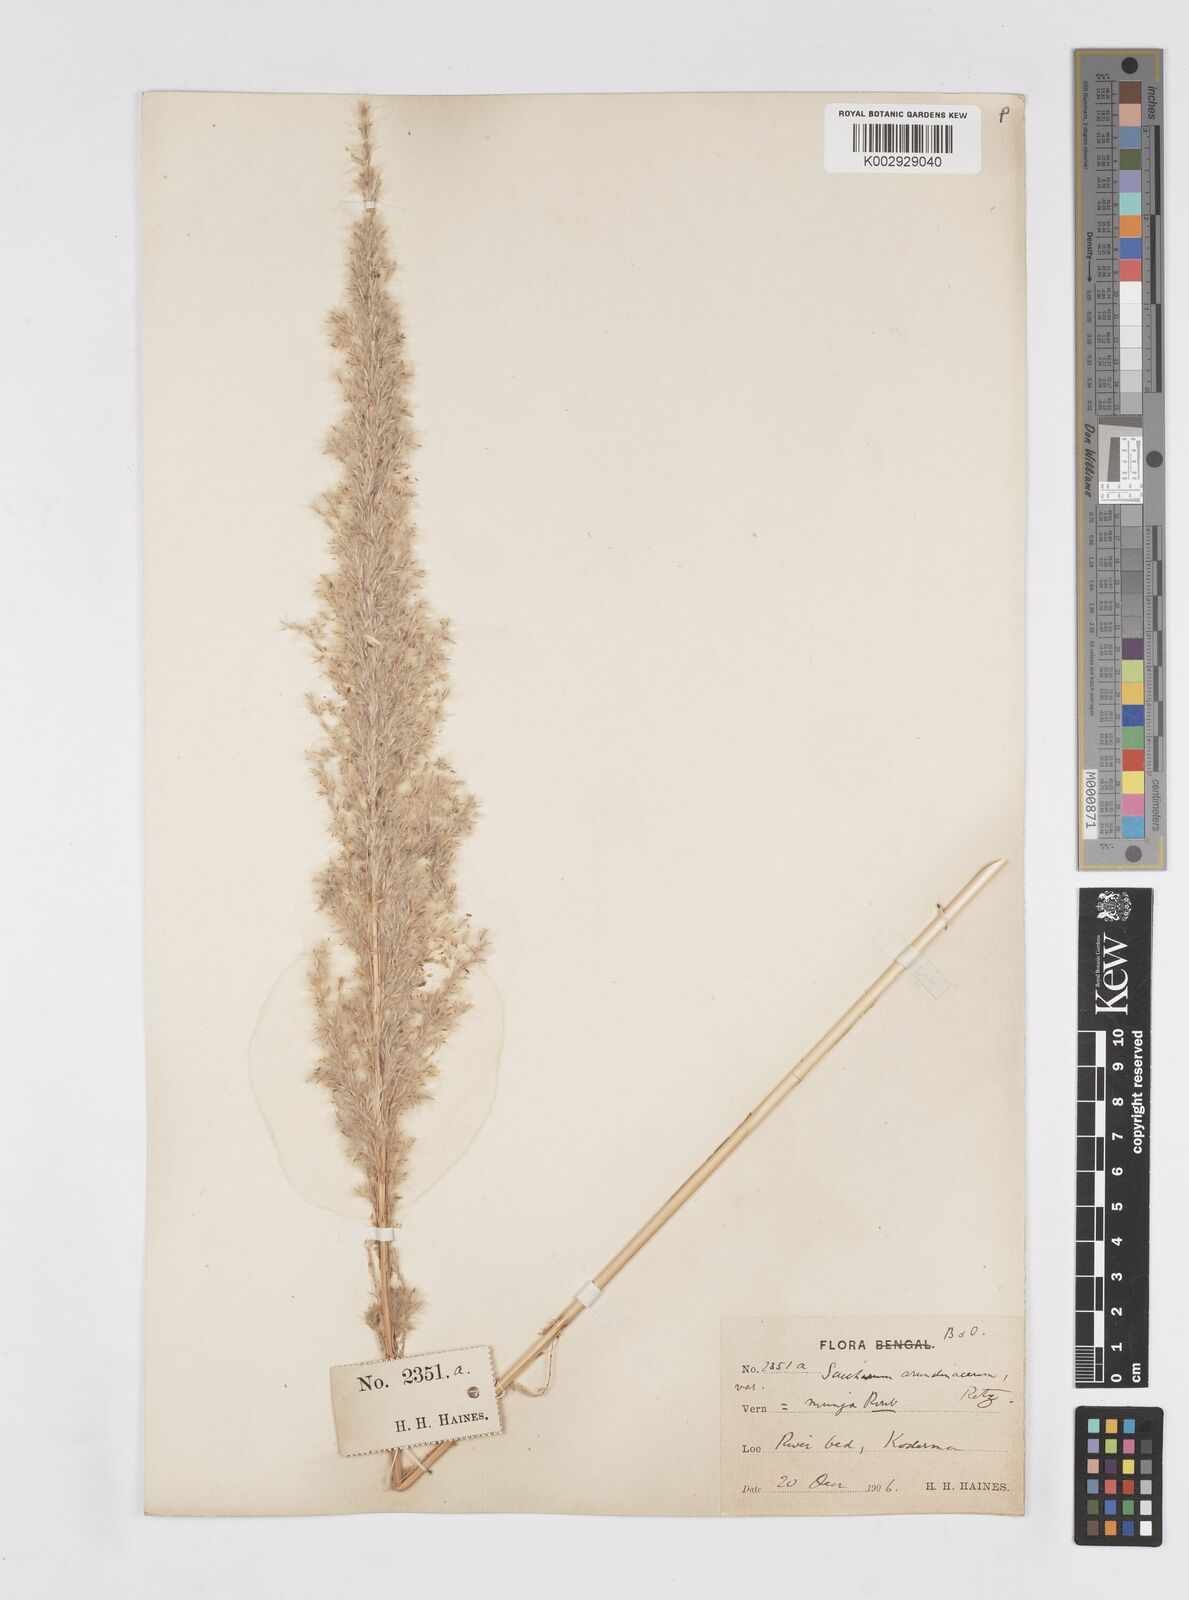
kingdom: Plantae
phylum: Tracheophyta
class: Liliopsida
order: Poales
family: Poaceae
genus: Tripidium
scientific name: Tripidium arundinaceum
